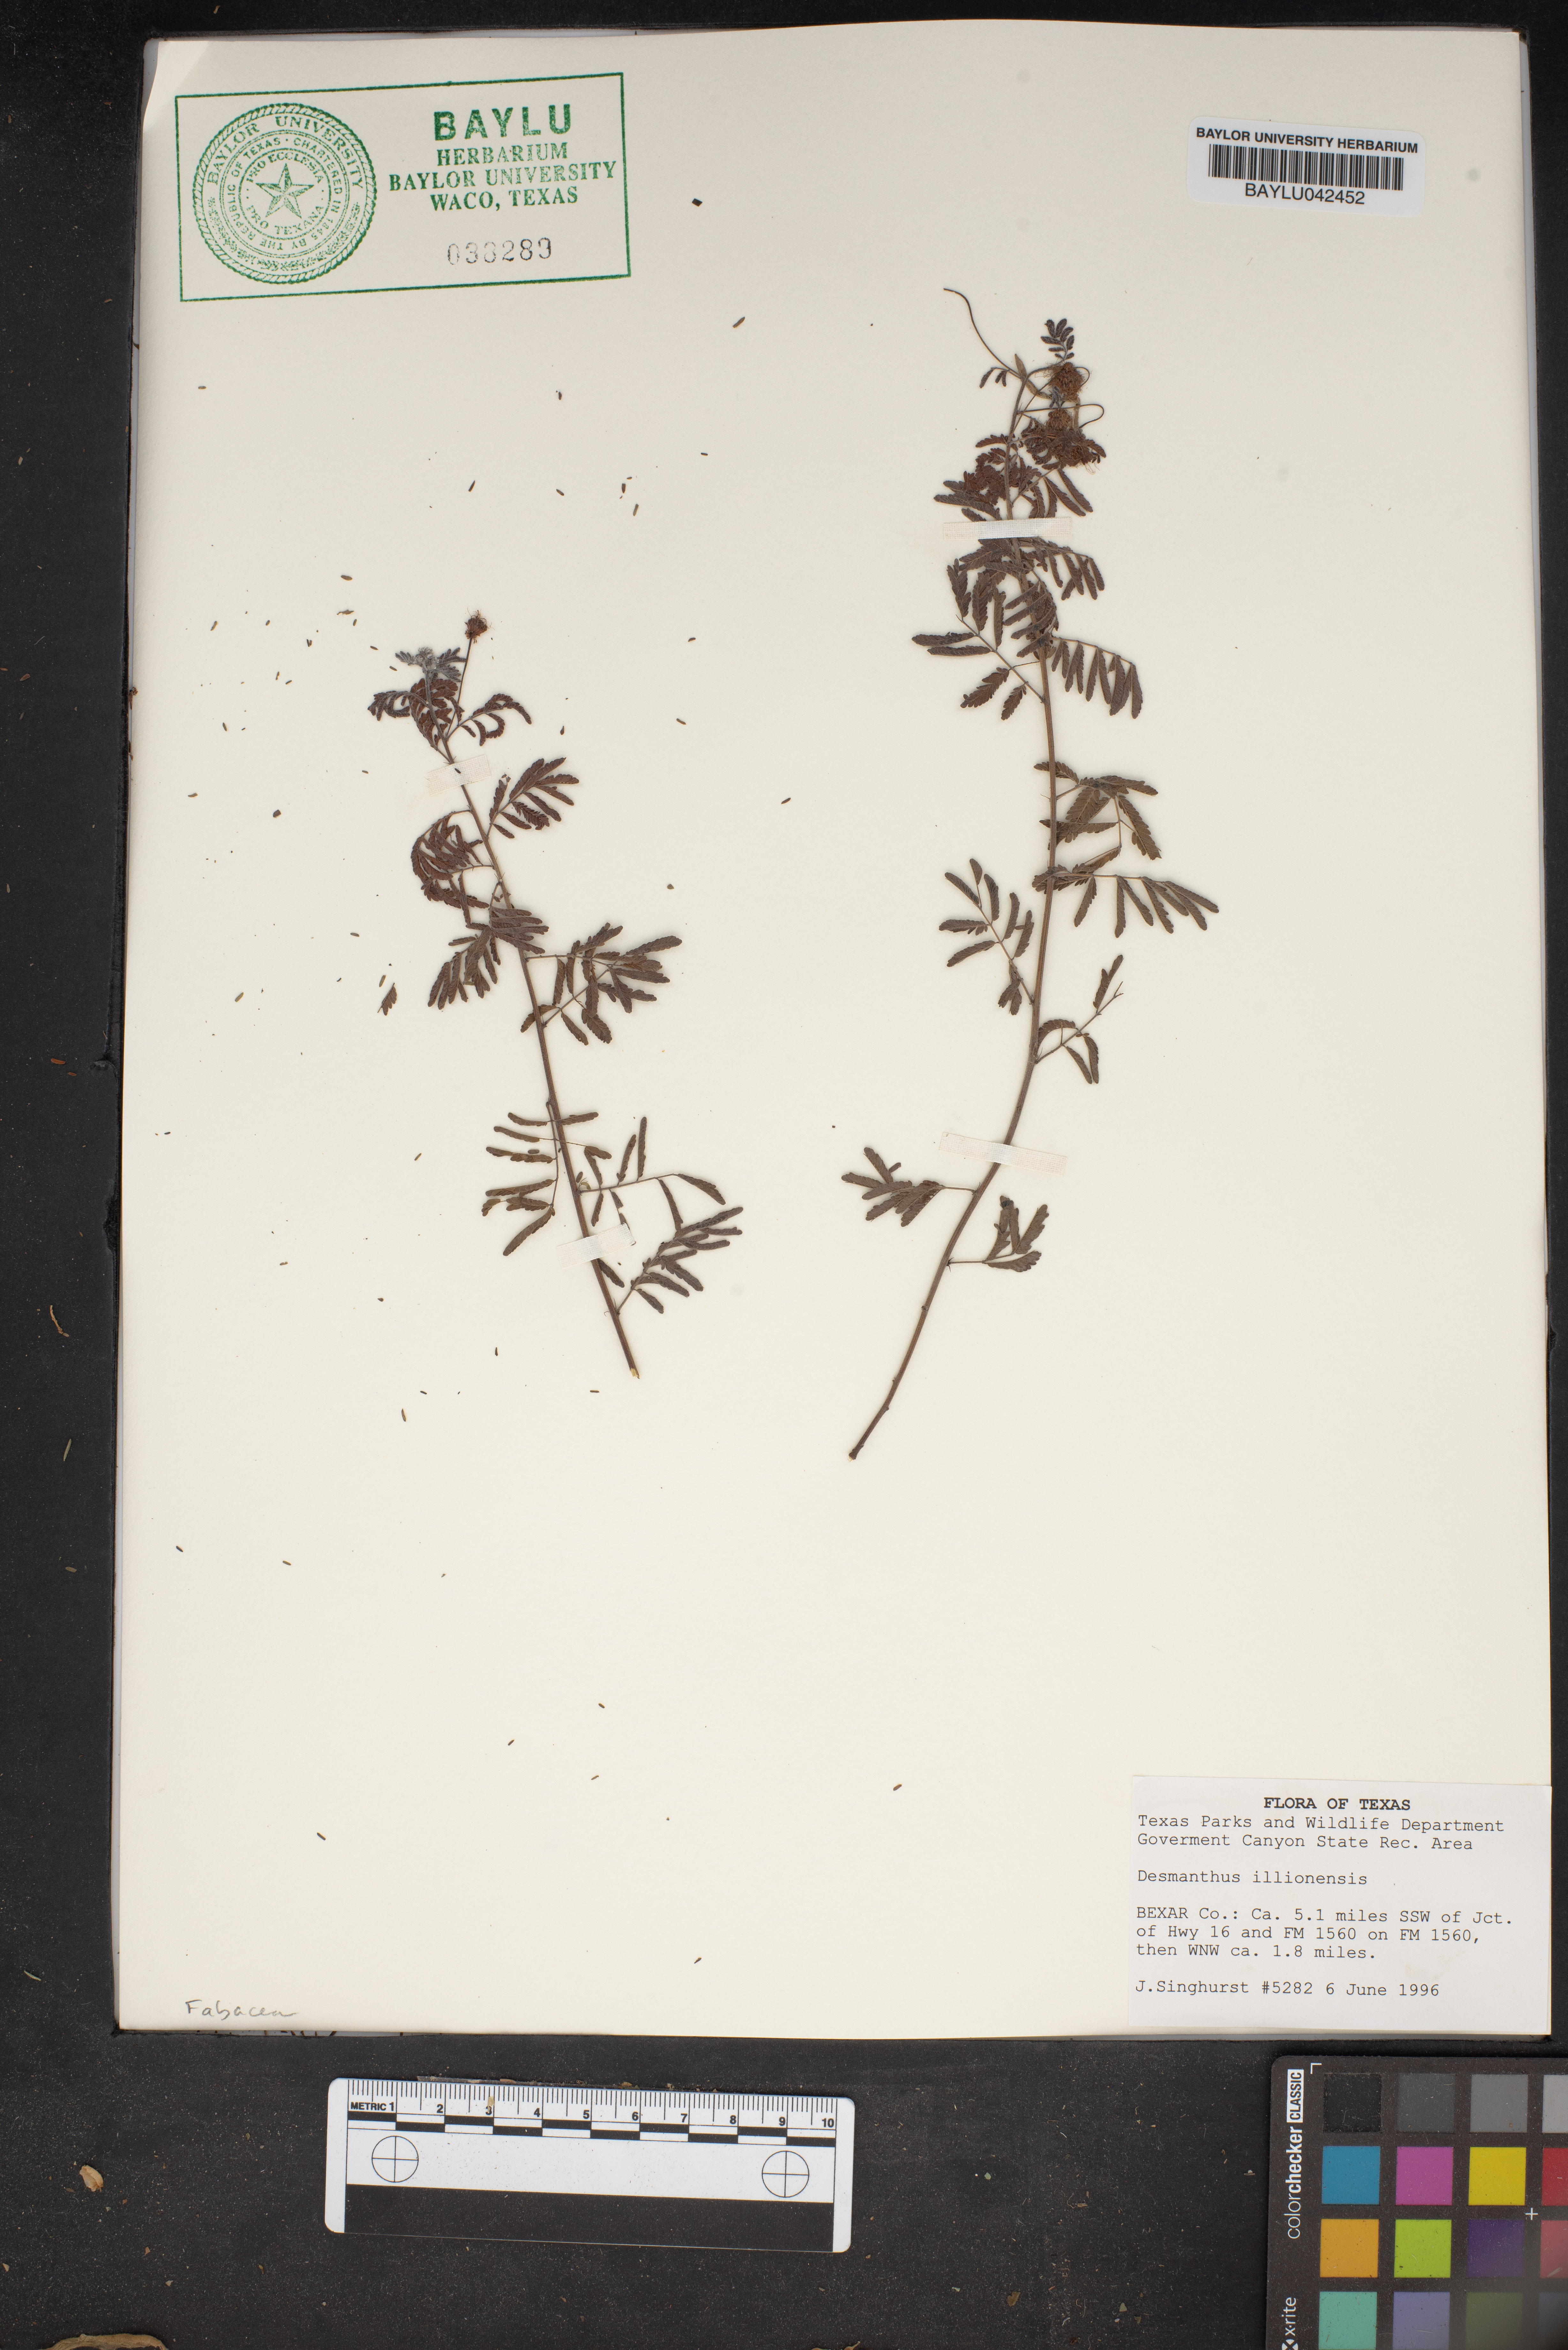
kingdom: Plantae
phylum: Tracheophyta
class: Magnoliopsida
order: Fabales
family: Fabaceae
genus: Desmanthus
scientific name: Desmanthus illinoensis
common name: Illinois bundle-flower
